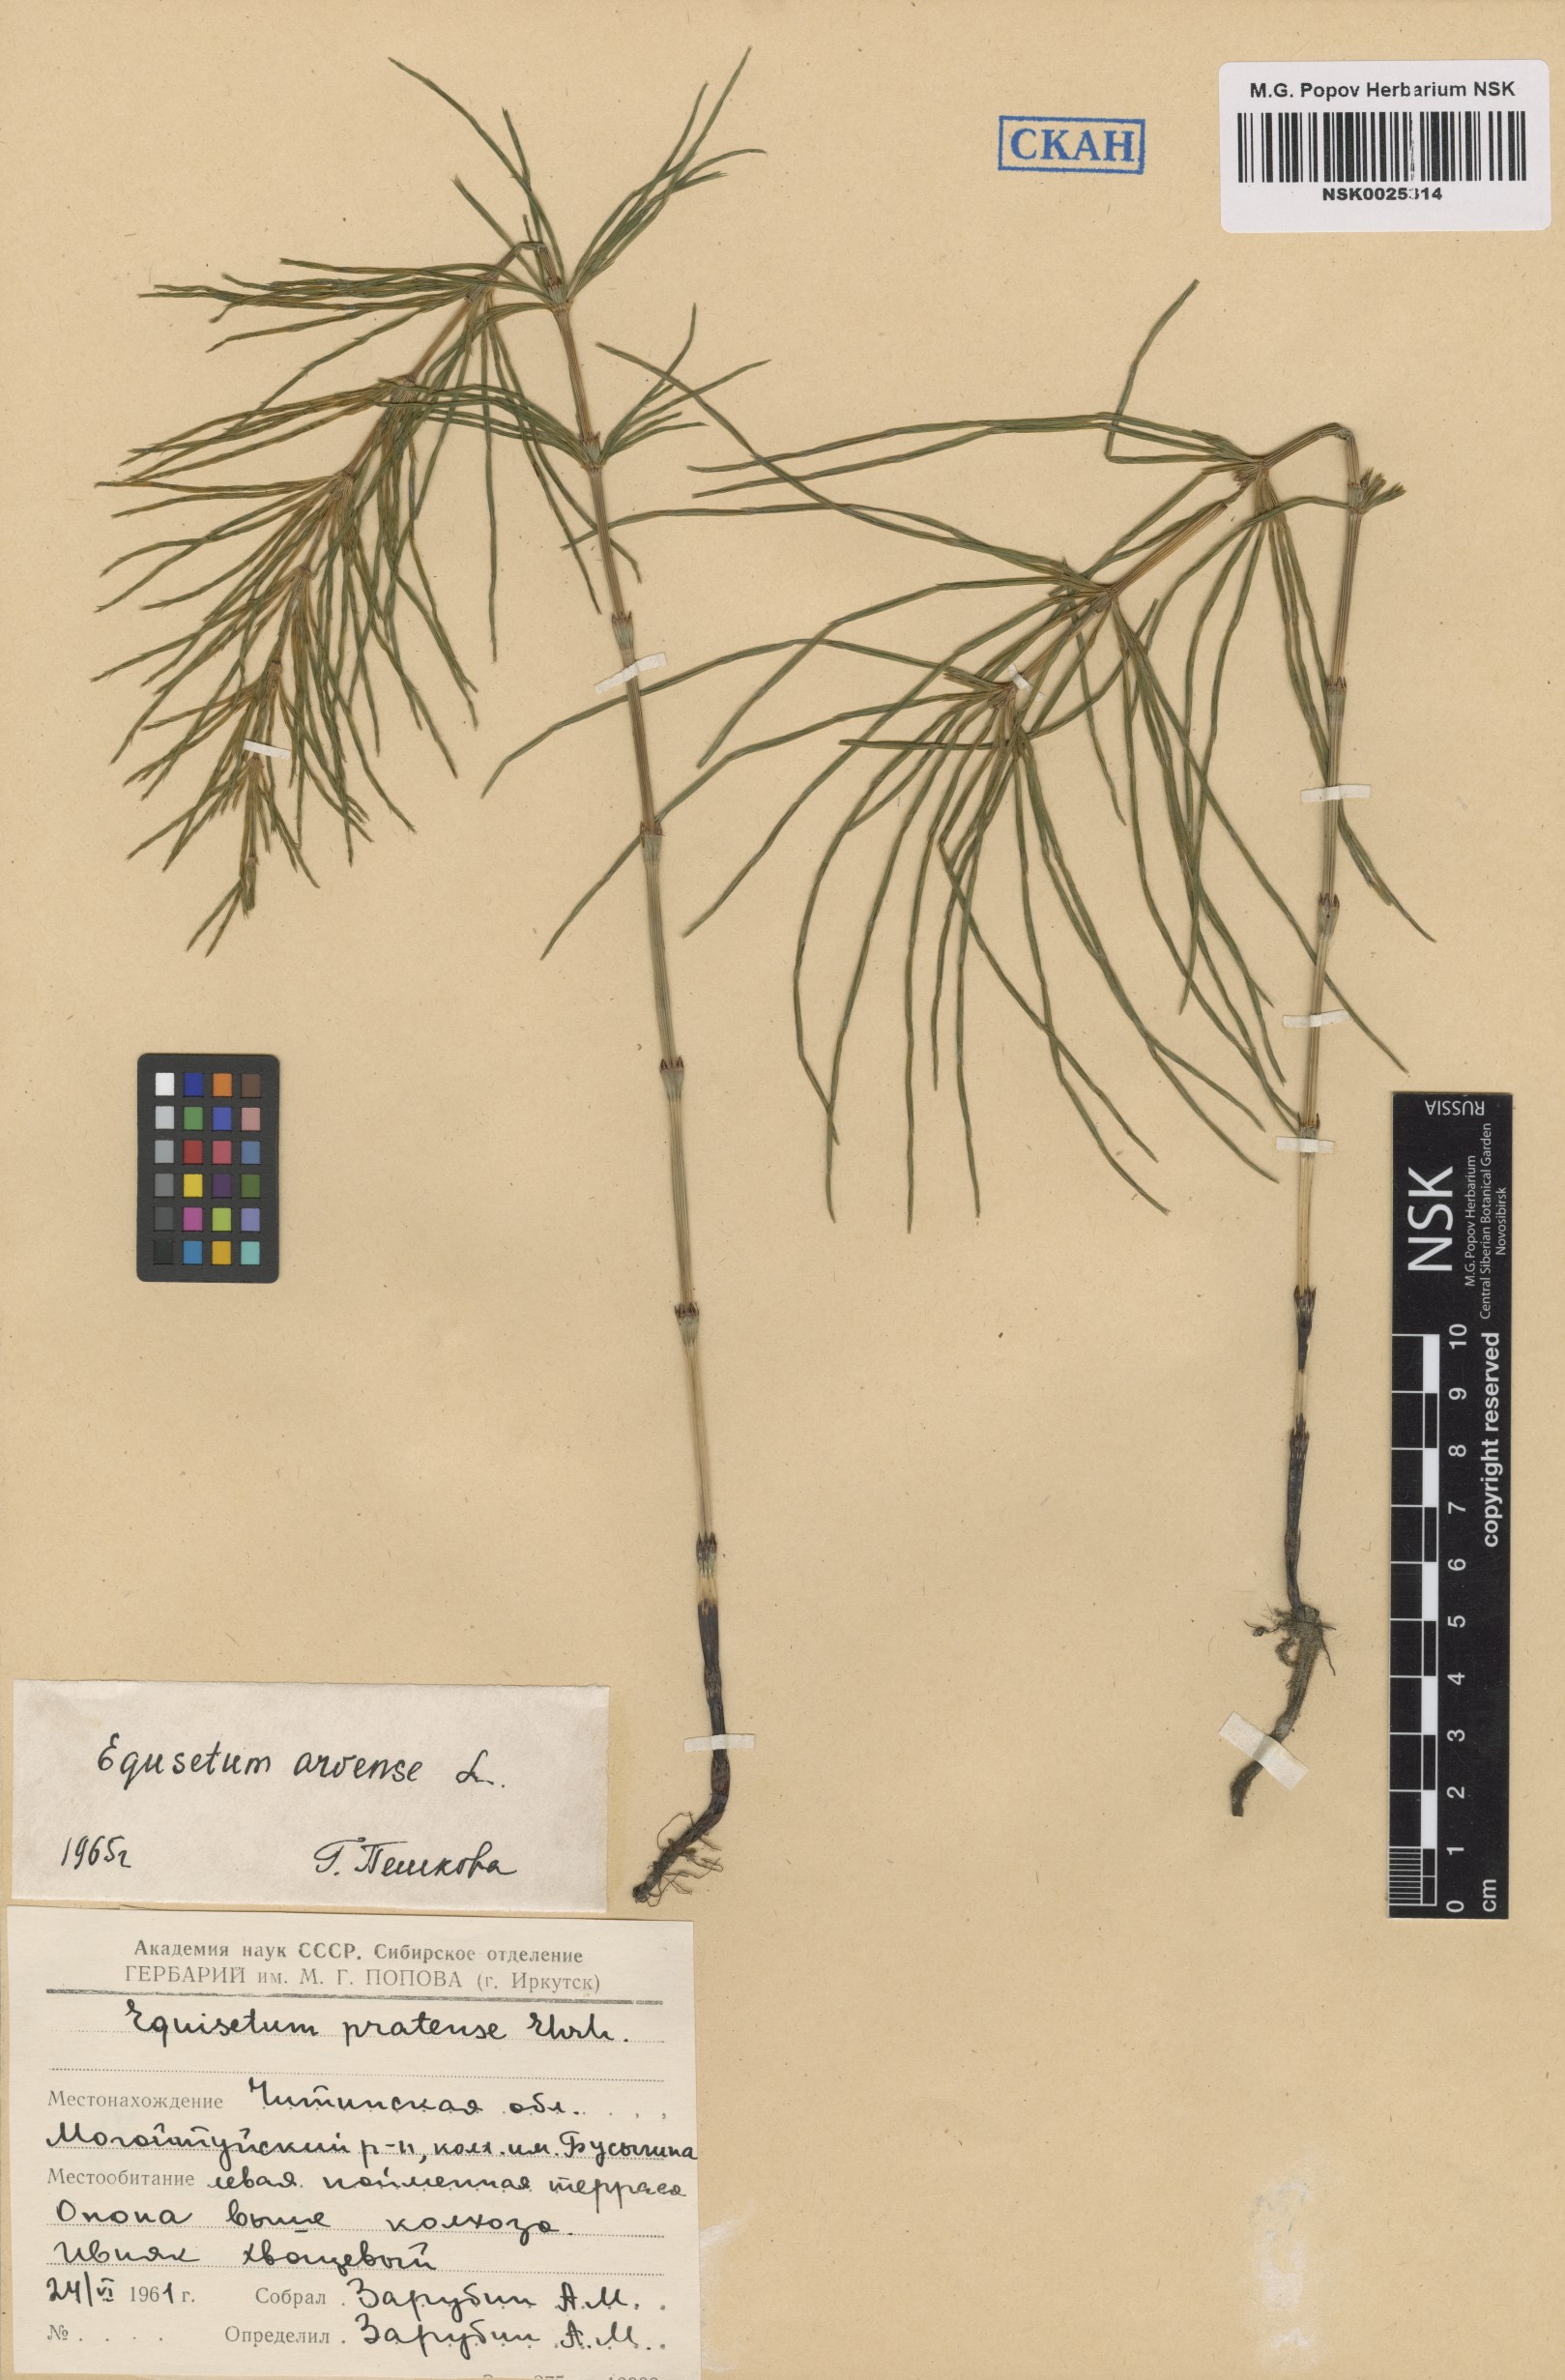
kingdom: Plantae
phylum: Tracheophyta
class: Polypodiopsida
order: Equisetales
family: Equisetaceae
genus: Equisetum
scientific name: Equisetum arvense
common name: Field horsetail
